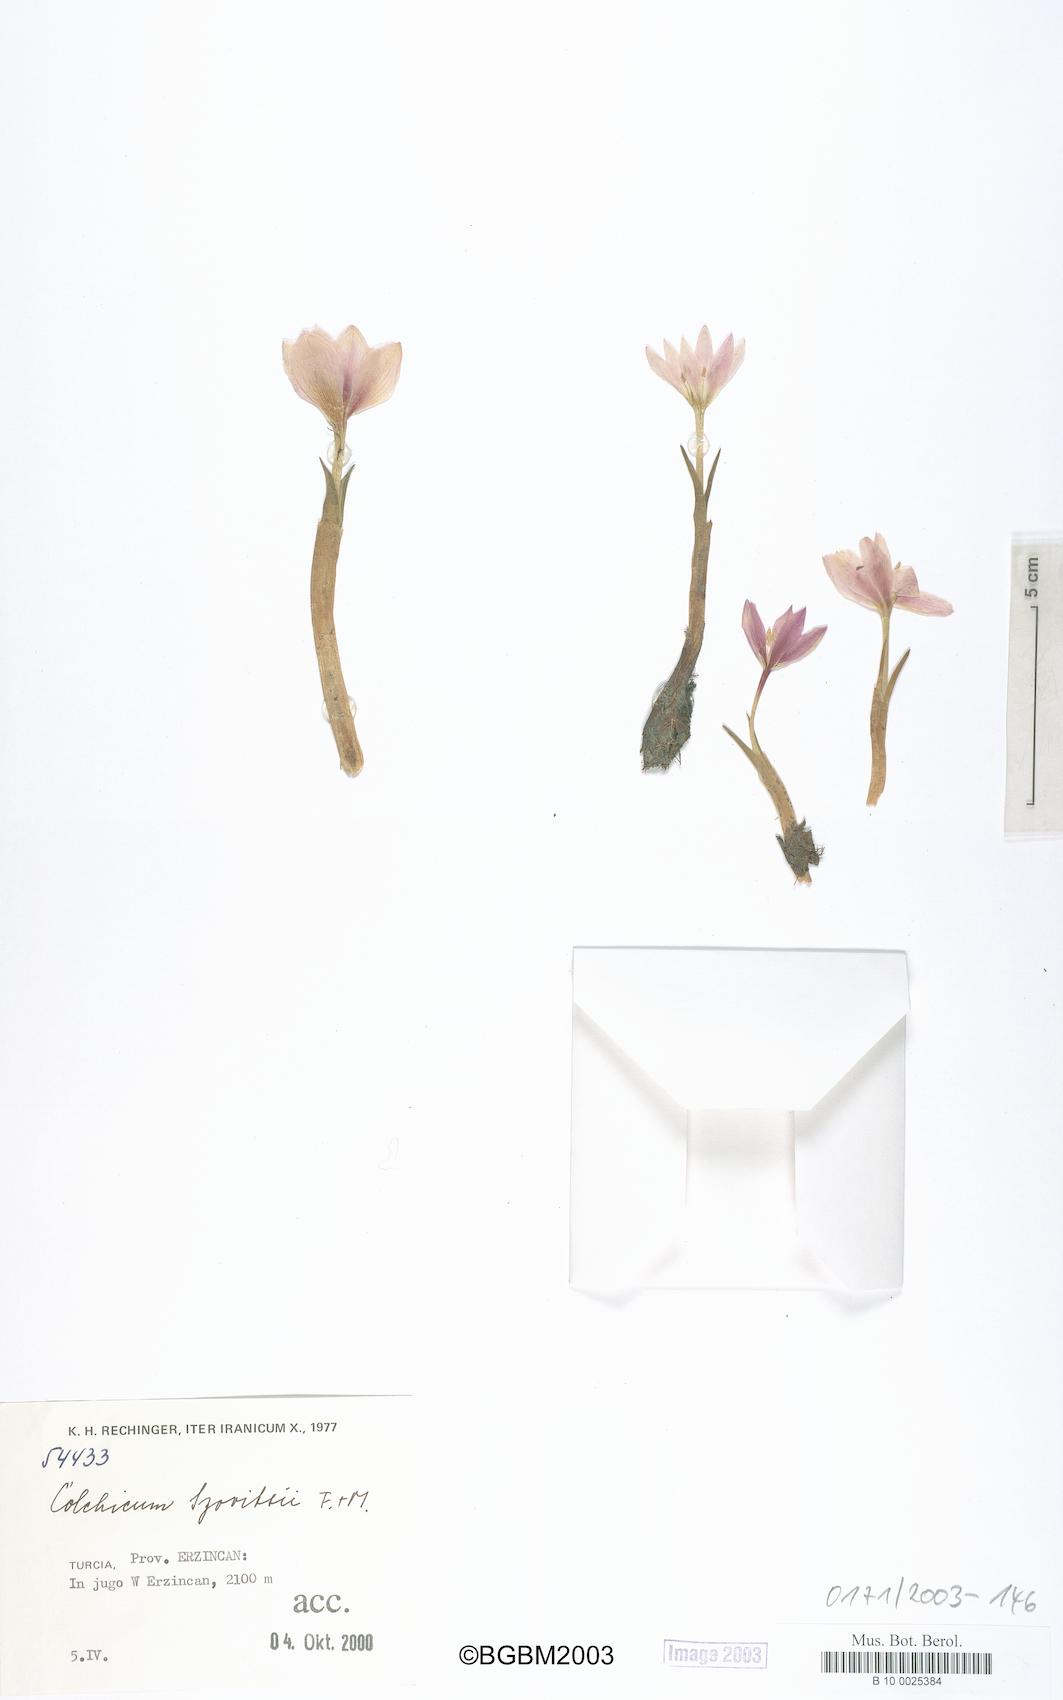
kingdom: Plantae
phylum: Tracheophyta
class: Liliopsida
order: Liliales
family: Colchicaceae
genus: Colchicum
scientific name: Colchicum szovitsii
